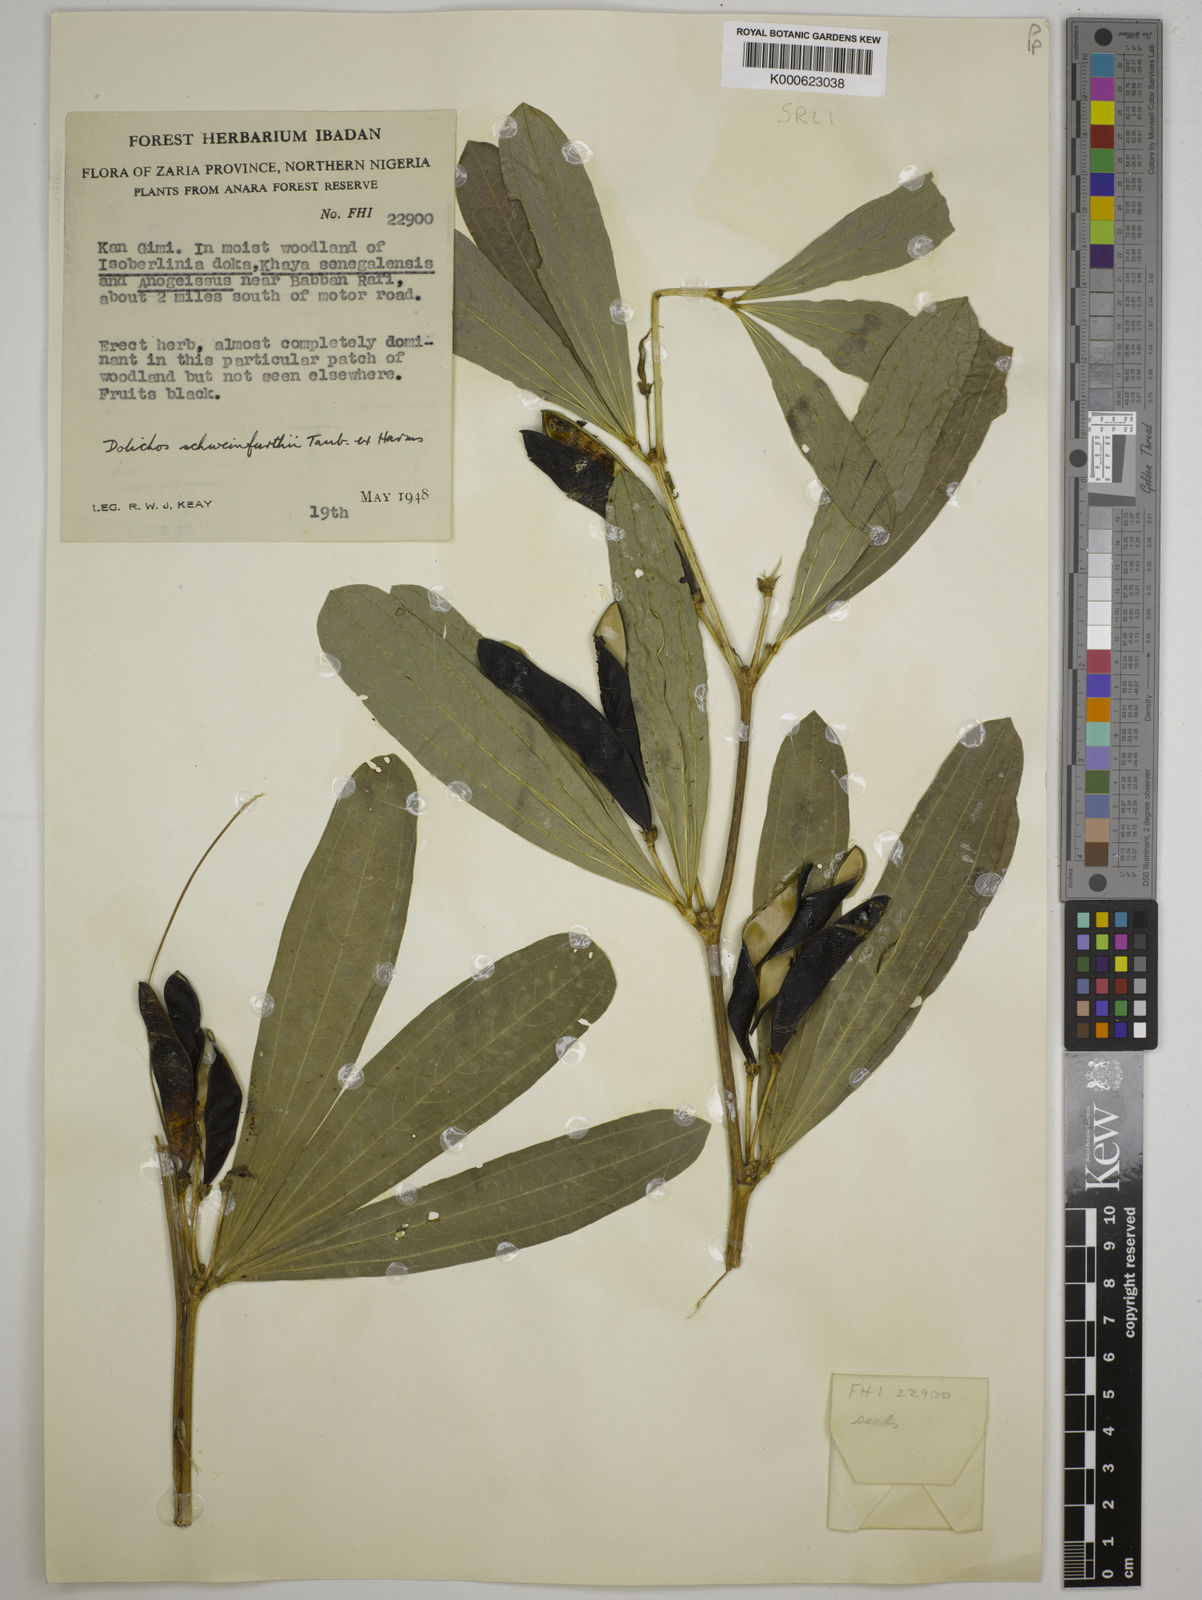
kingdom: Plantae
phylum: Tracheophyta
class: Magnoliopsida
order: Fabales
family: Fabaceae
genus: Dolichos
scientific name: Dolichos
